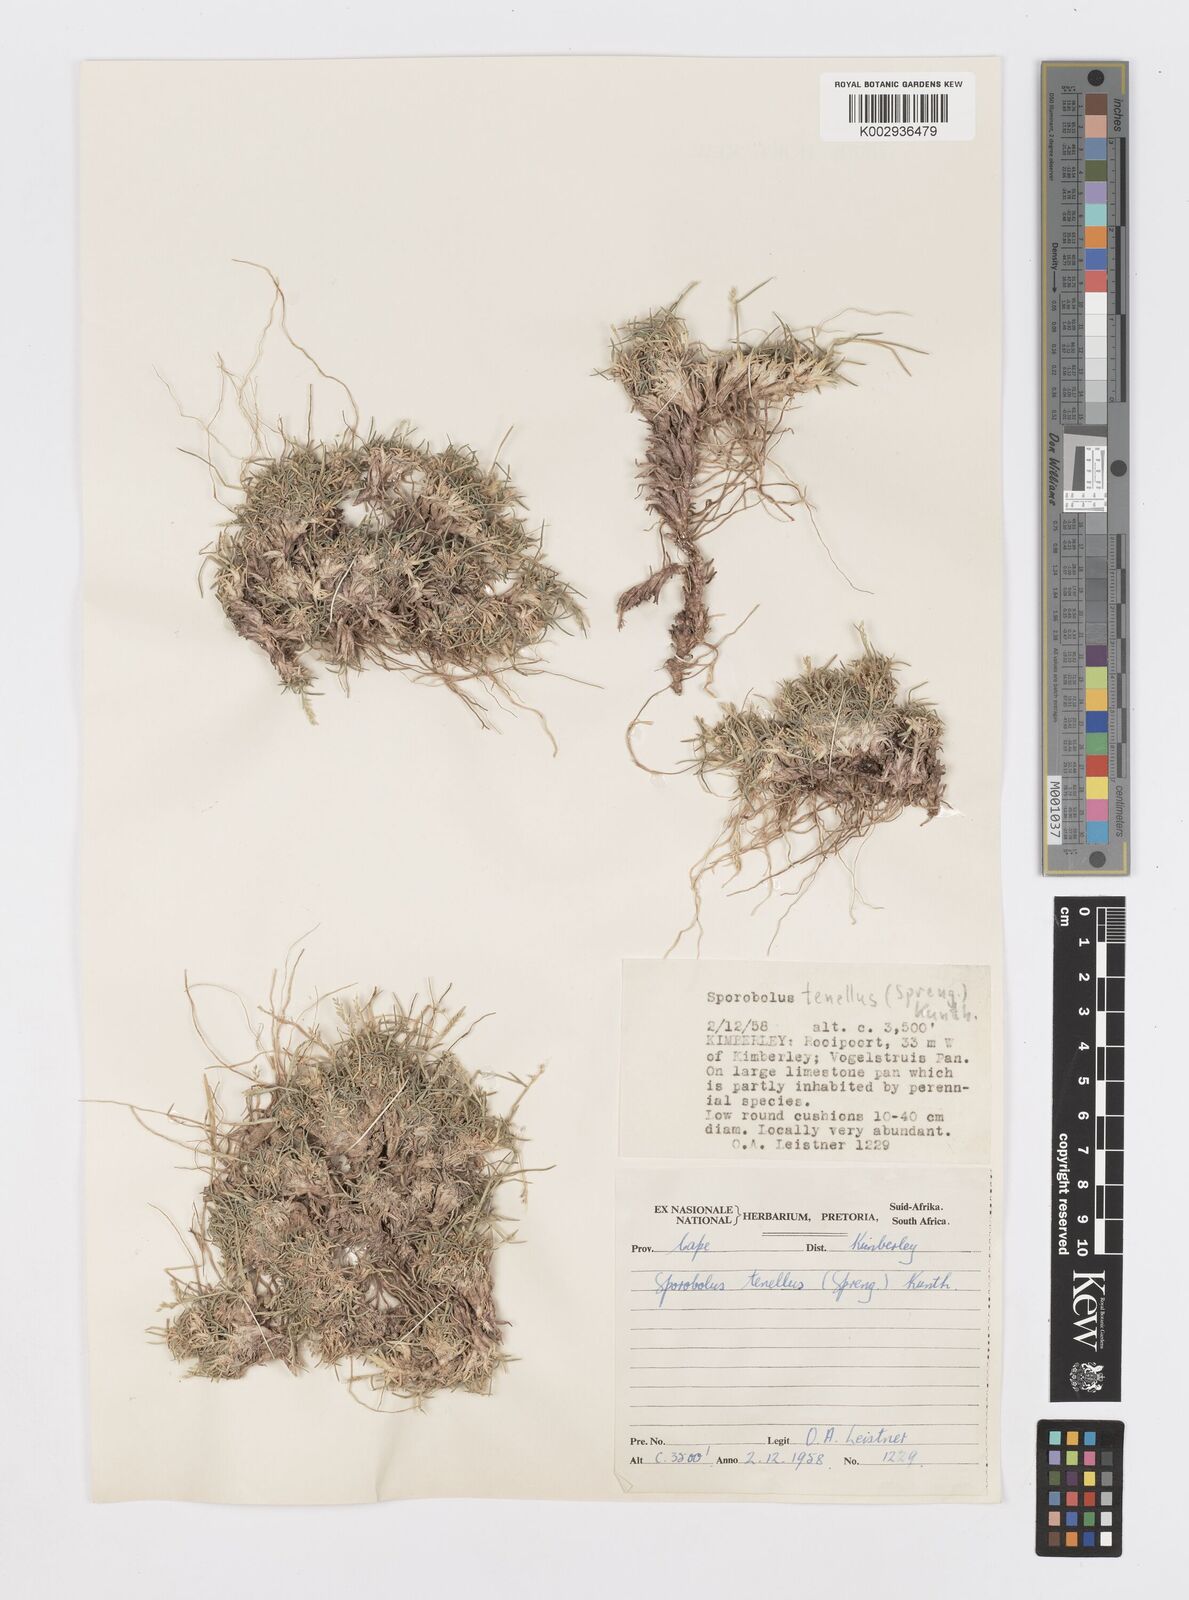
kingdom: Plantae
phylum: Tracheophyta
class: Liliopsida
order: Poales
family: Poaceae
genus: Sporobolus
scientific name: Sporobolus acinifolius
